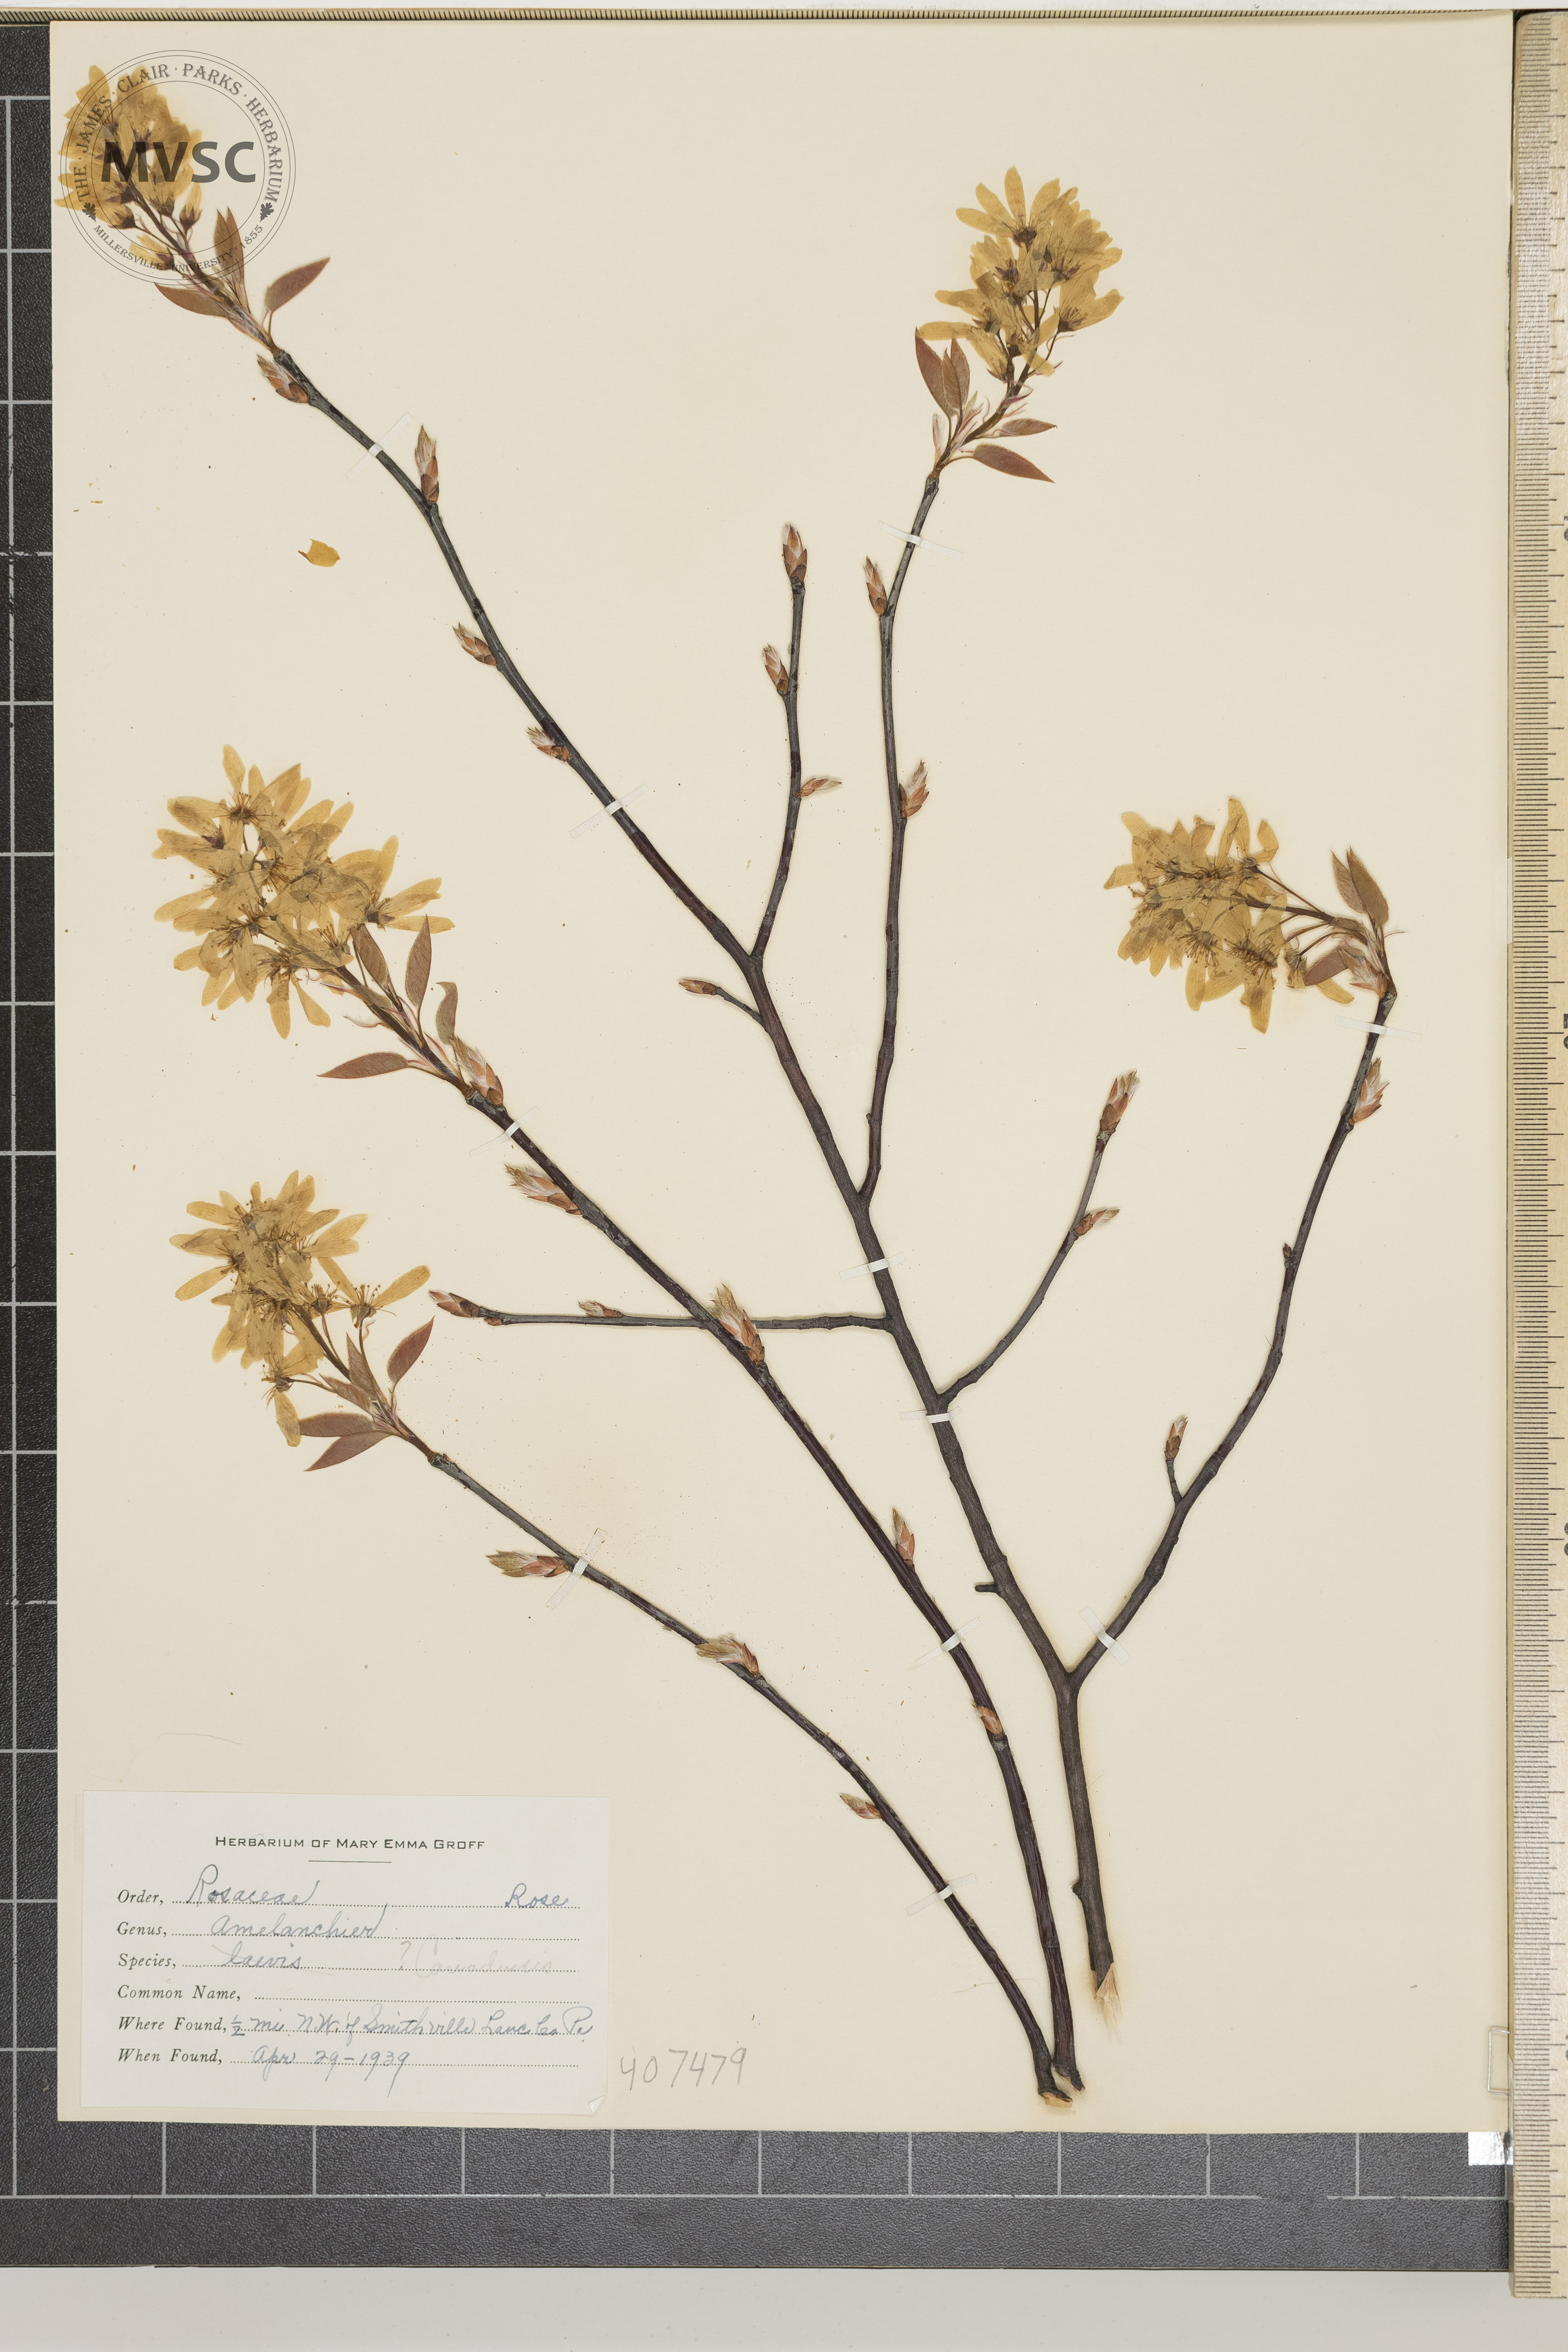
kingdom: Plantae
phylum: Tracheophyta
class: Magnoliopsida
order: Rosales
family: Rosaceae
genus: Amelanchier
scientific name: Amelanchier laevis
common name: Allegheny serviceberry
